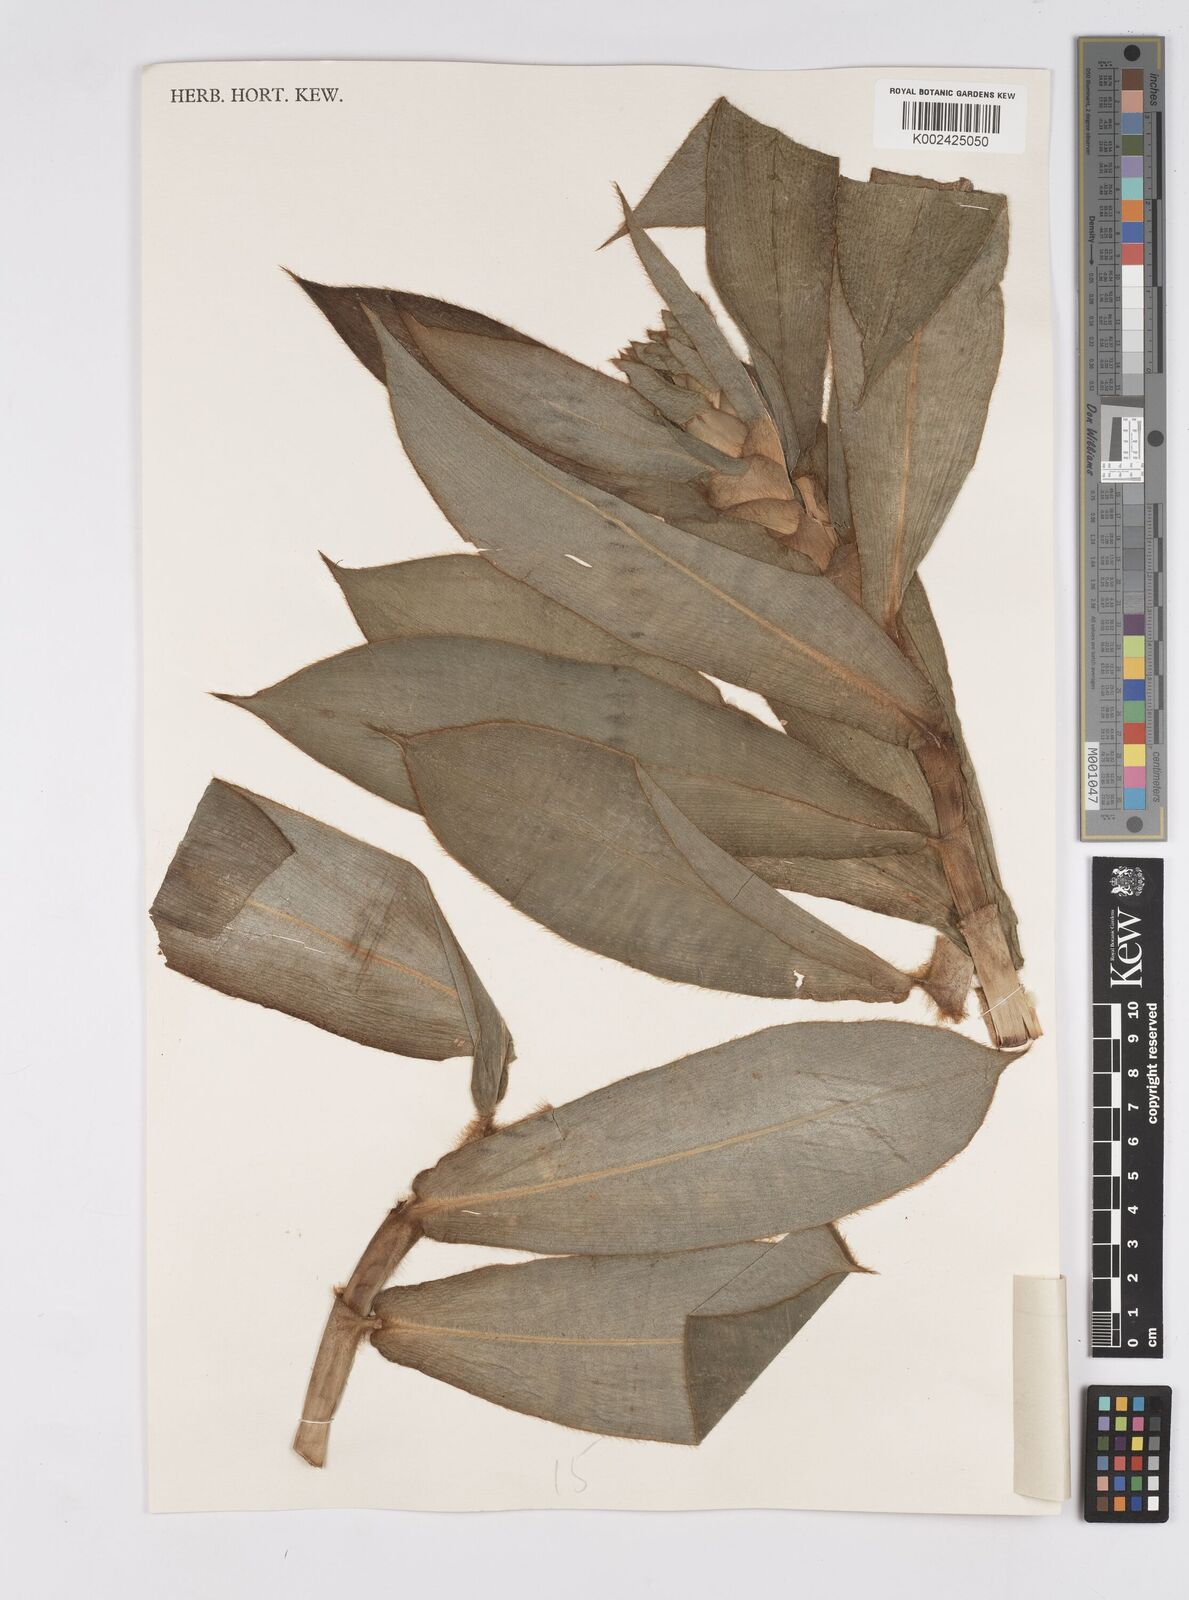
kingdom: Plantae
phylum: Tracheophyta
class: Liliopsida
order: Zingiberales
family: Costaceae
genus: Costus
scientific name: Costus villosissimus
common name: Spiral flag
